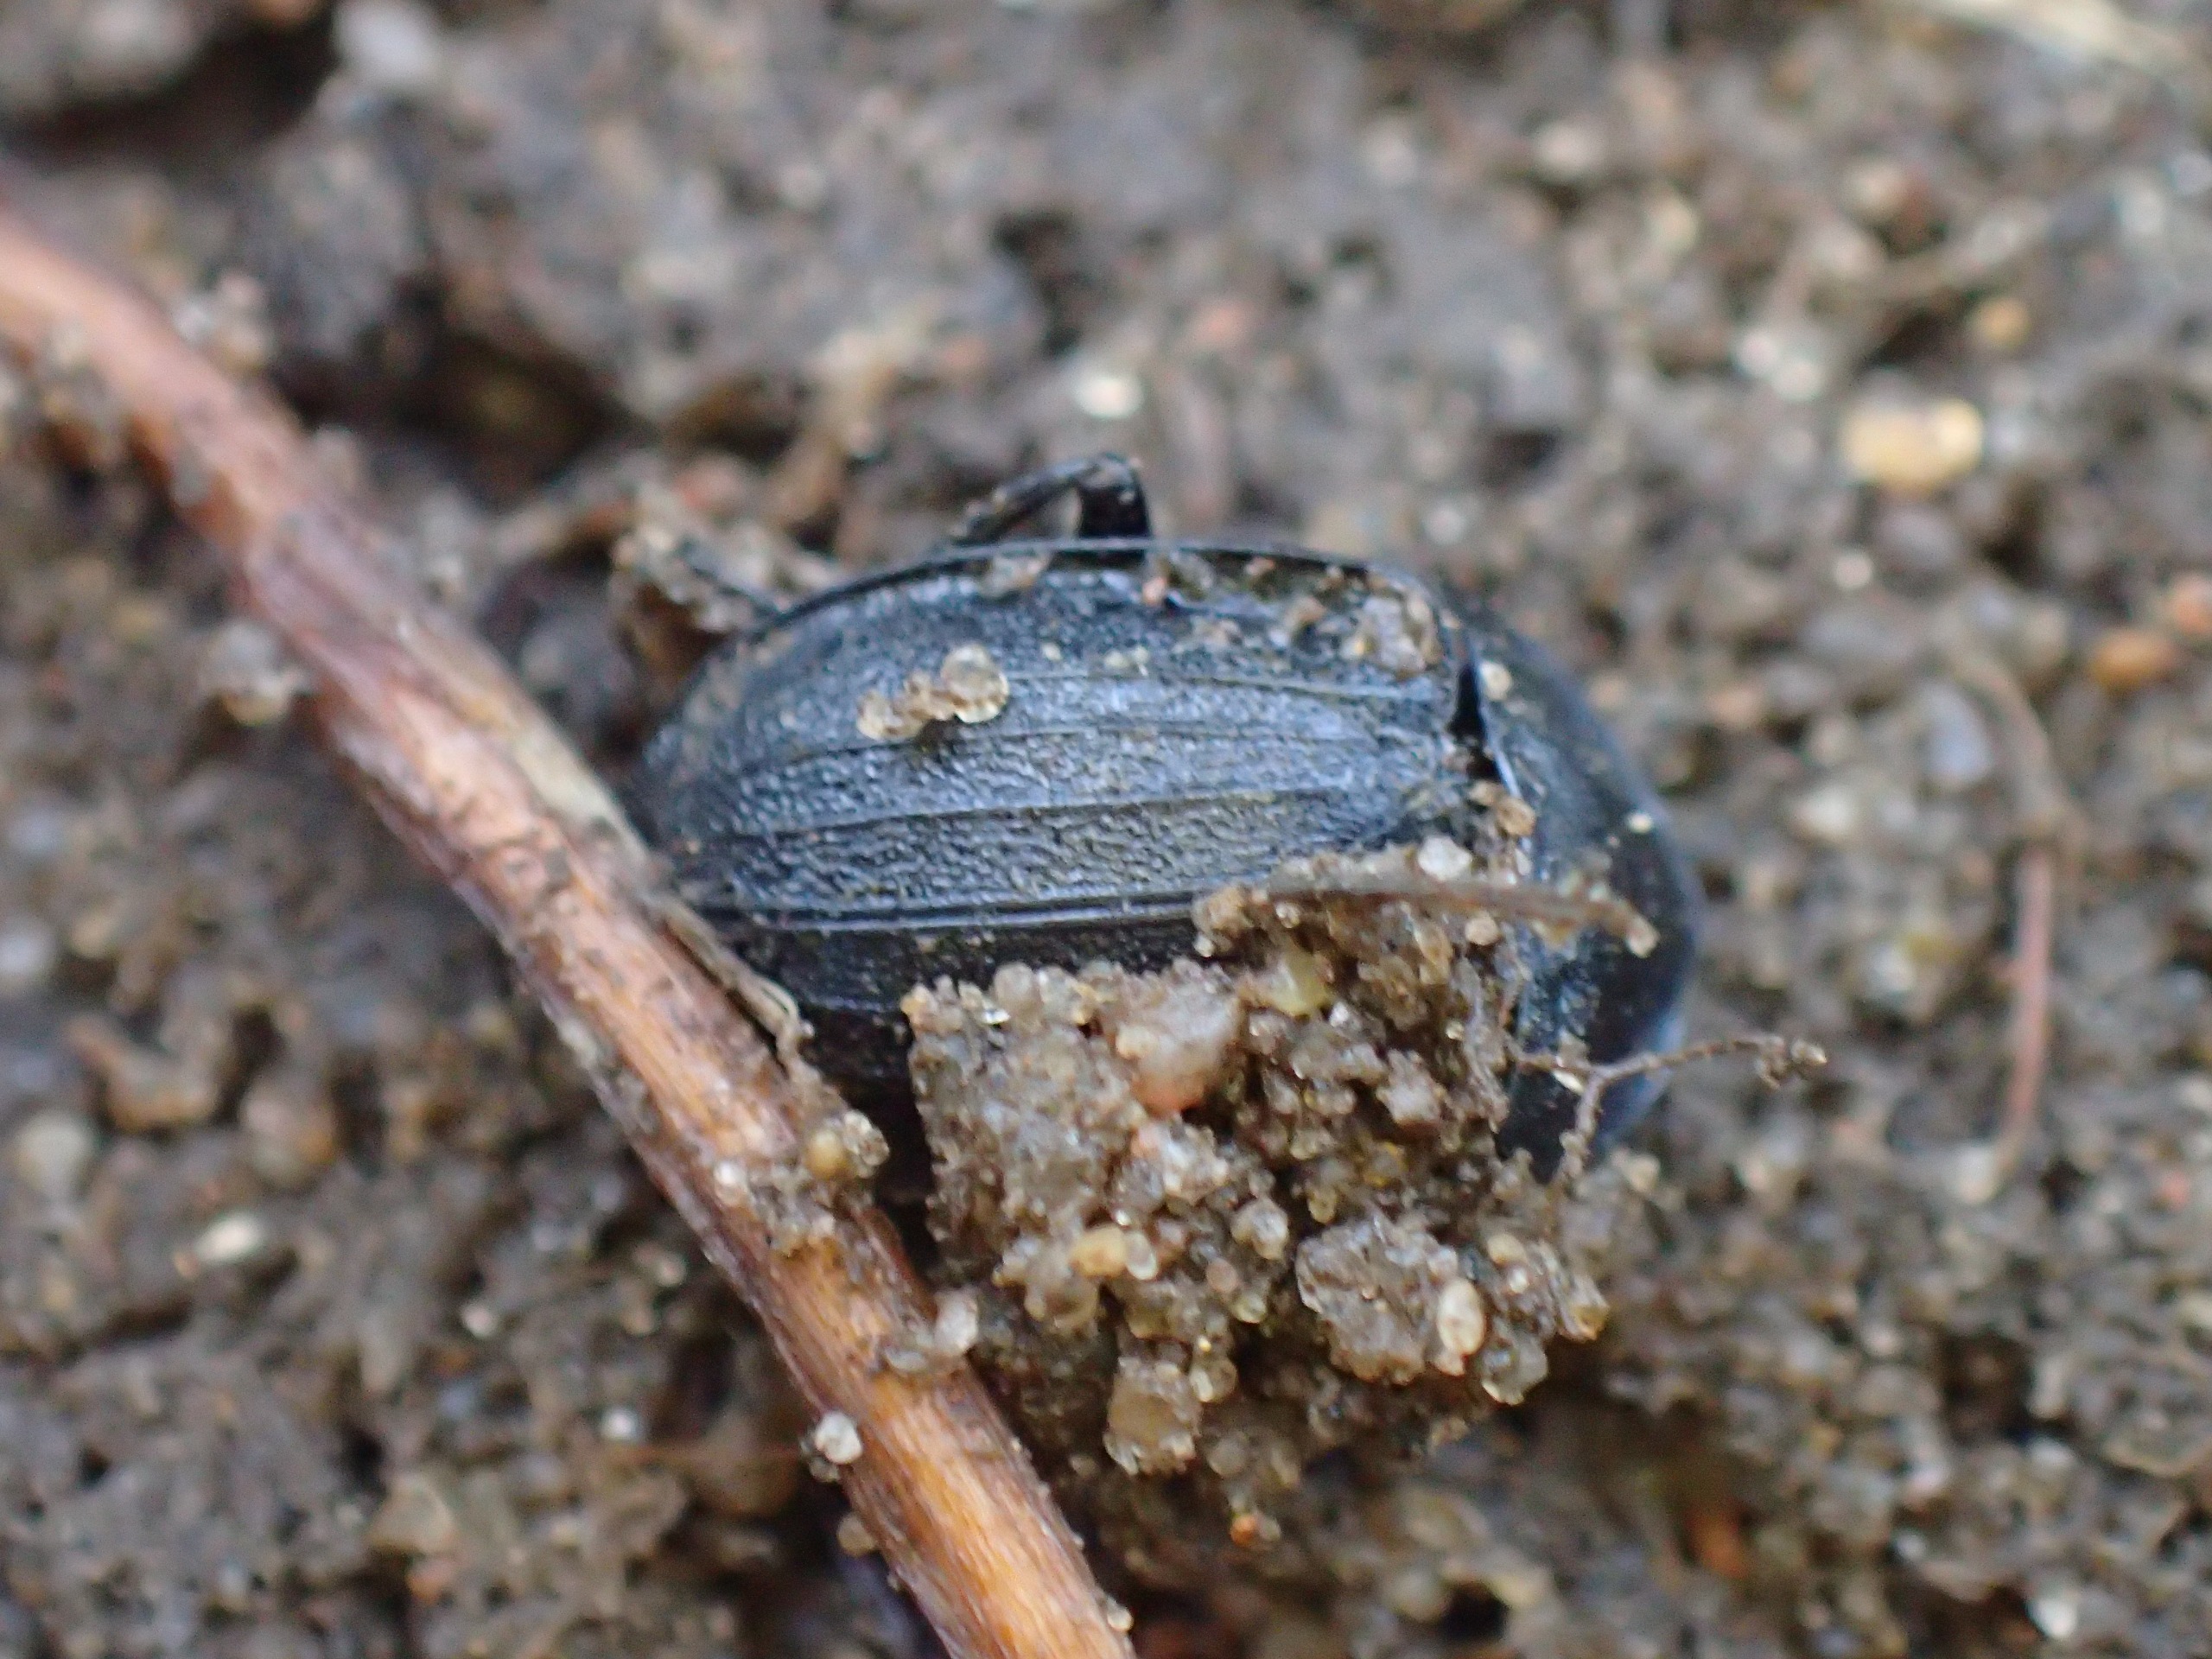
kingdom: Animalia
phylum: Arthropoda
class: Insecta
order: Coleoptera
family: Staphylinidae
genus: Silpha
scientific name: Silpha atrata
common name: Snegleådselbille
